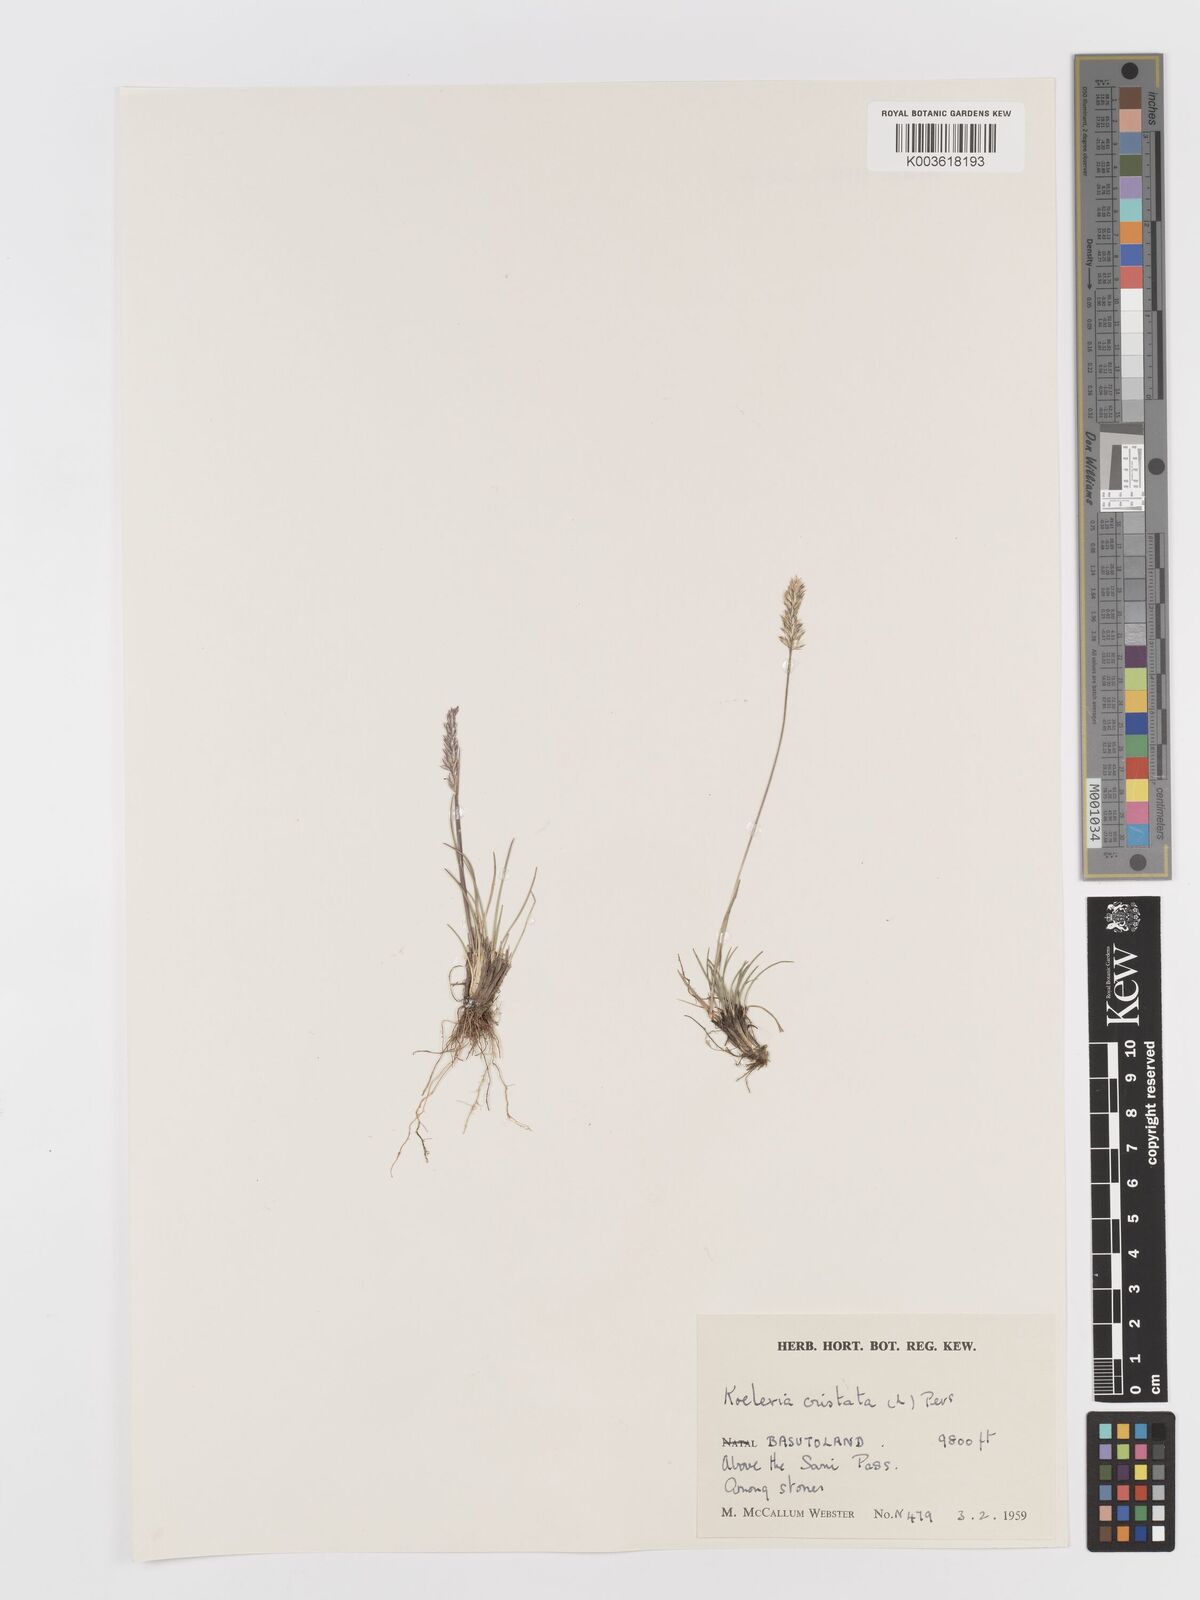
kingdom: Plantae
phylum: Tracheophyta
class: Liliopsida
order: Poales
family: Poaceae
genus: Koeleria
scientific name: Koeleria capensis
